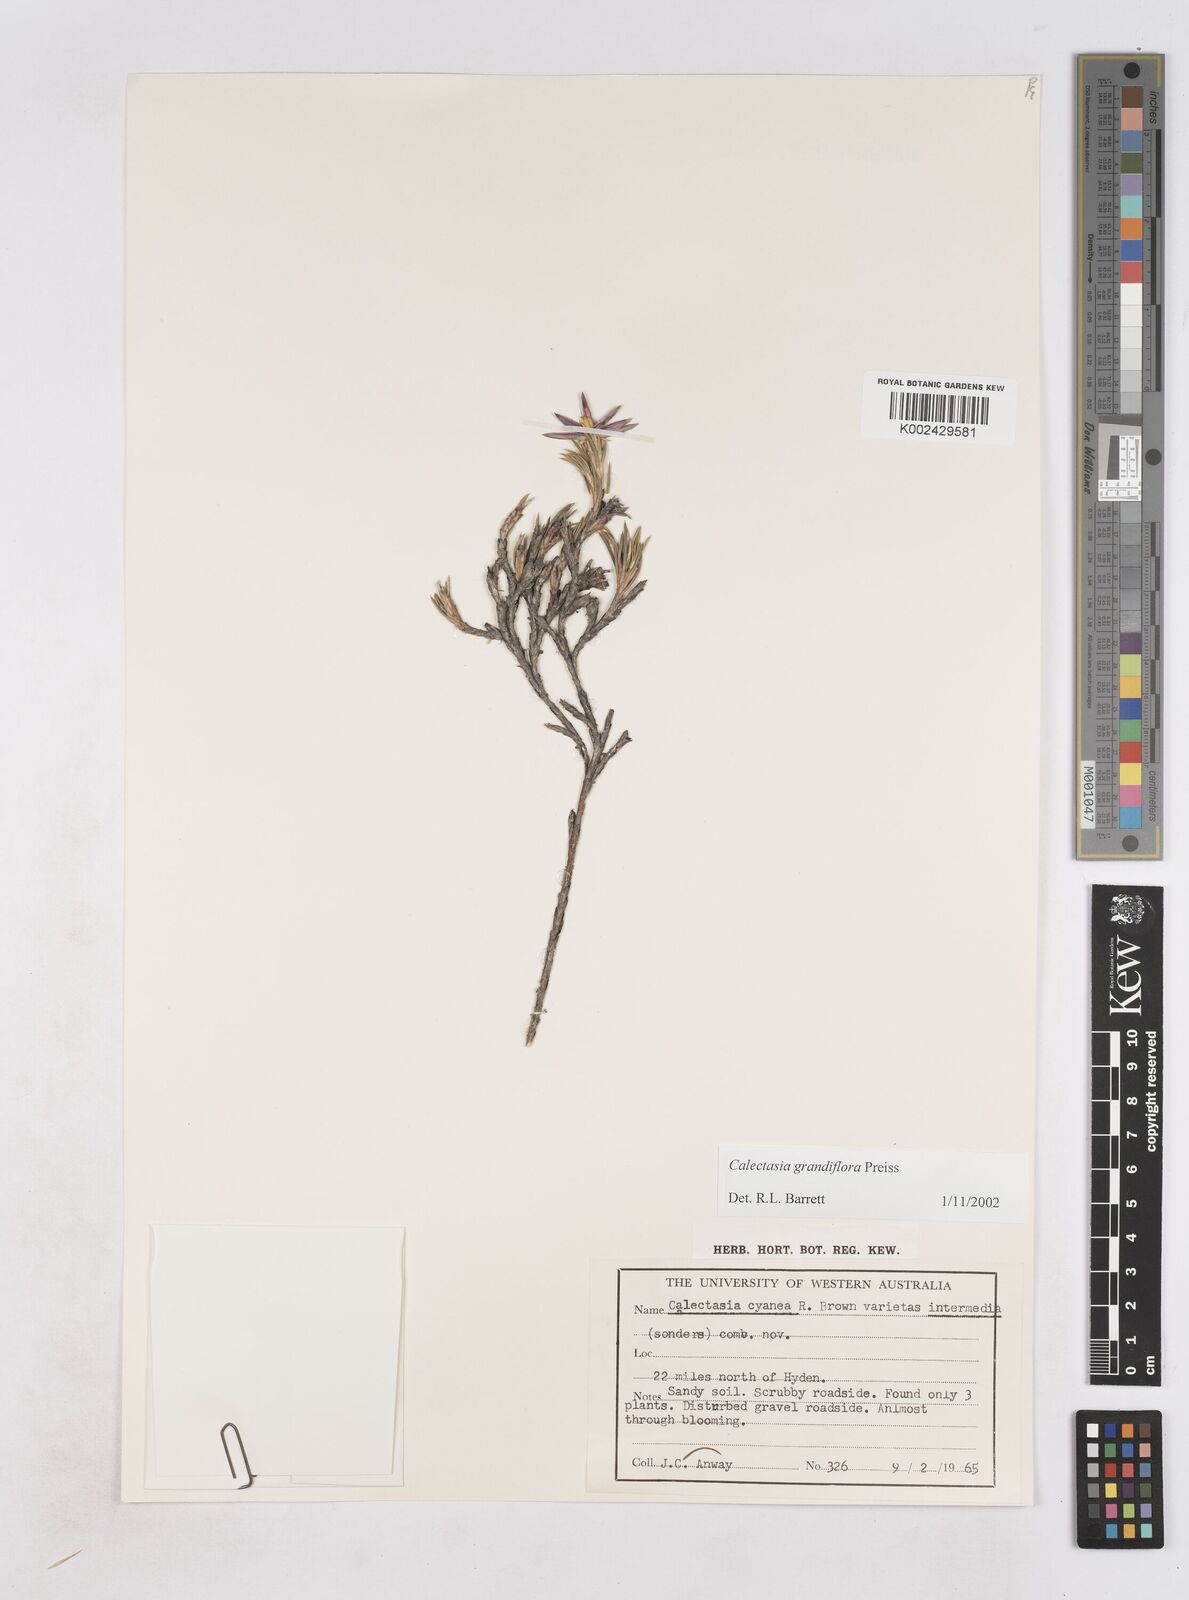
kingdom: Plantae
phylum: Tracheophyta
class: Liliopsida
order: Arecales
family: Dasypogonaceae
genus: Calectasia
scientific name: Calectasia grandiflora
